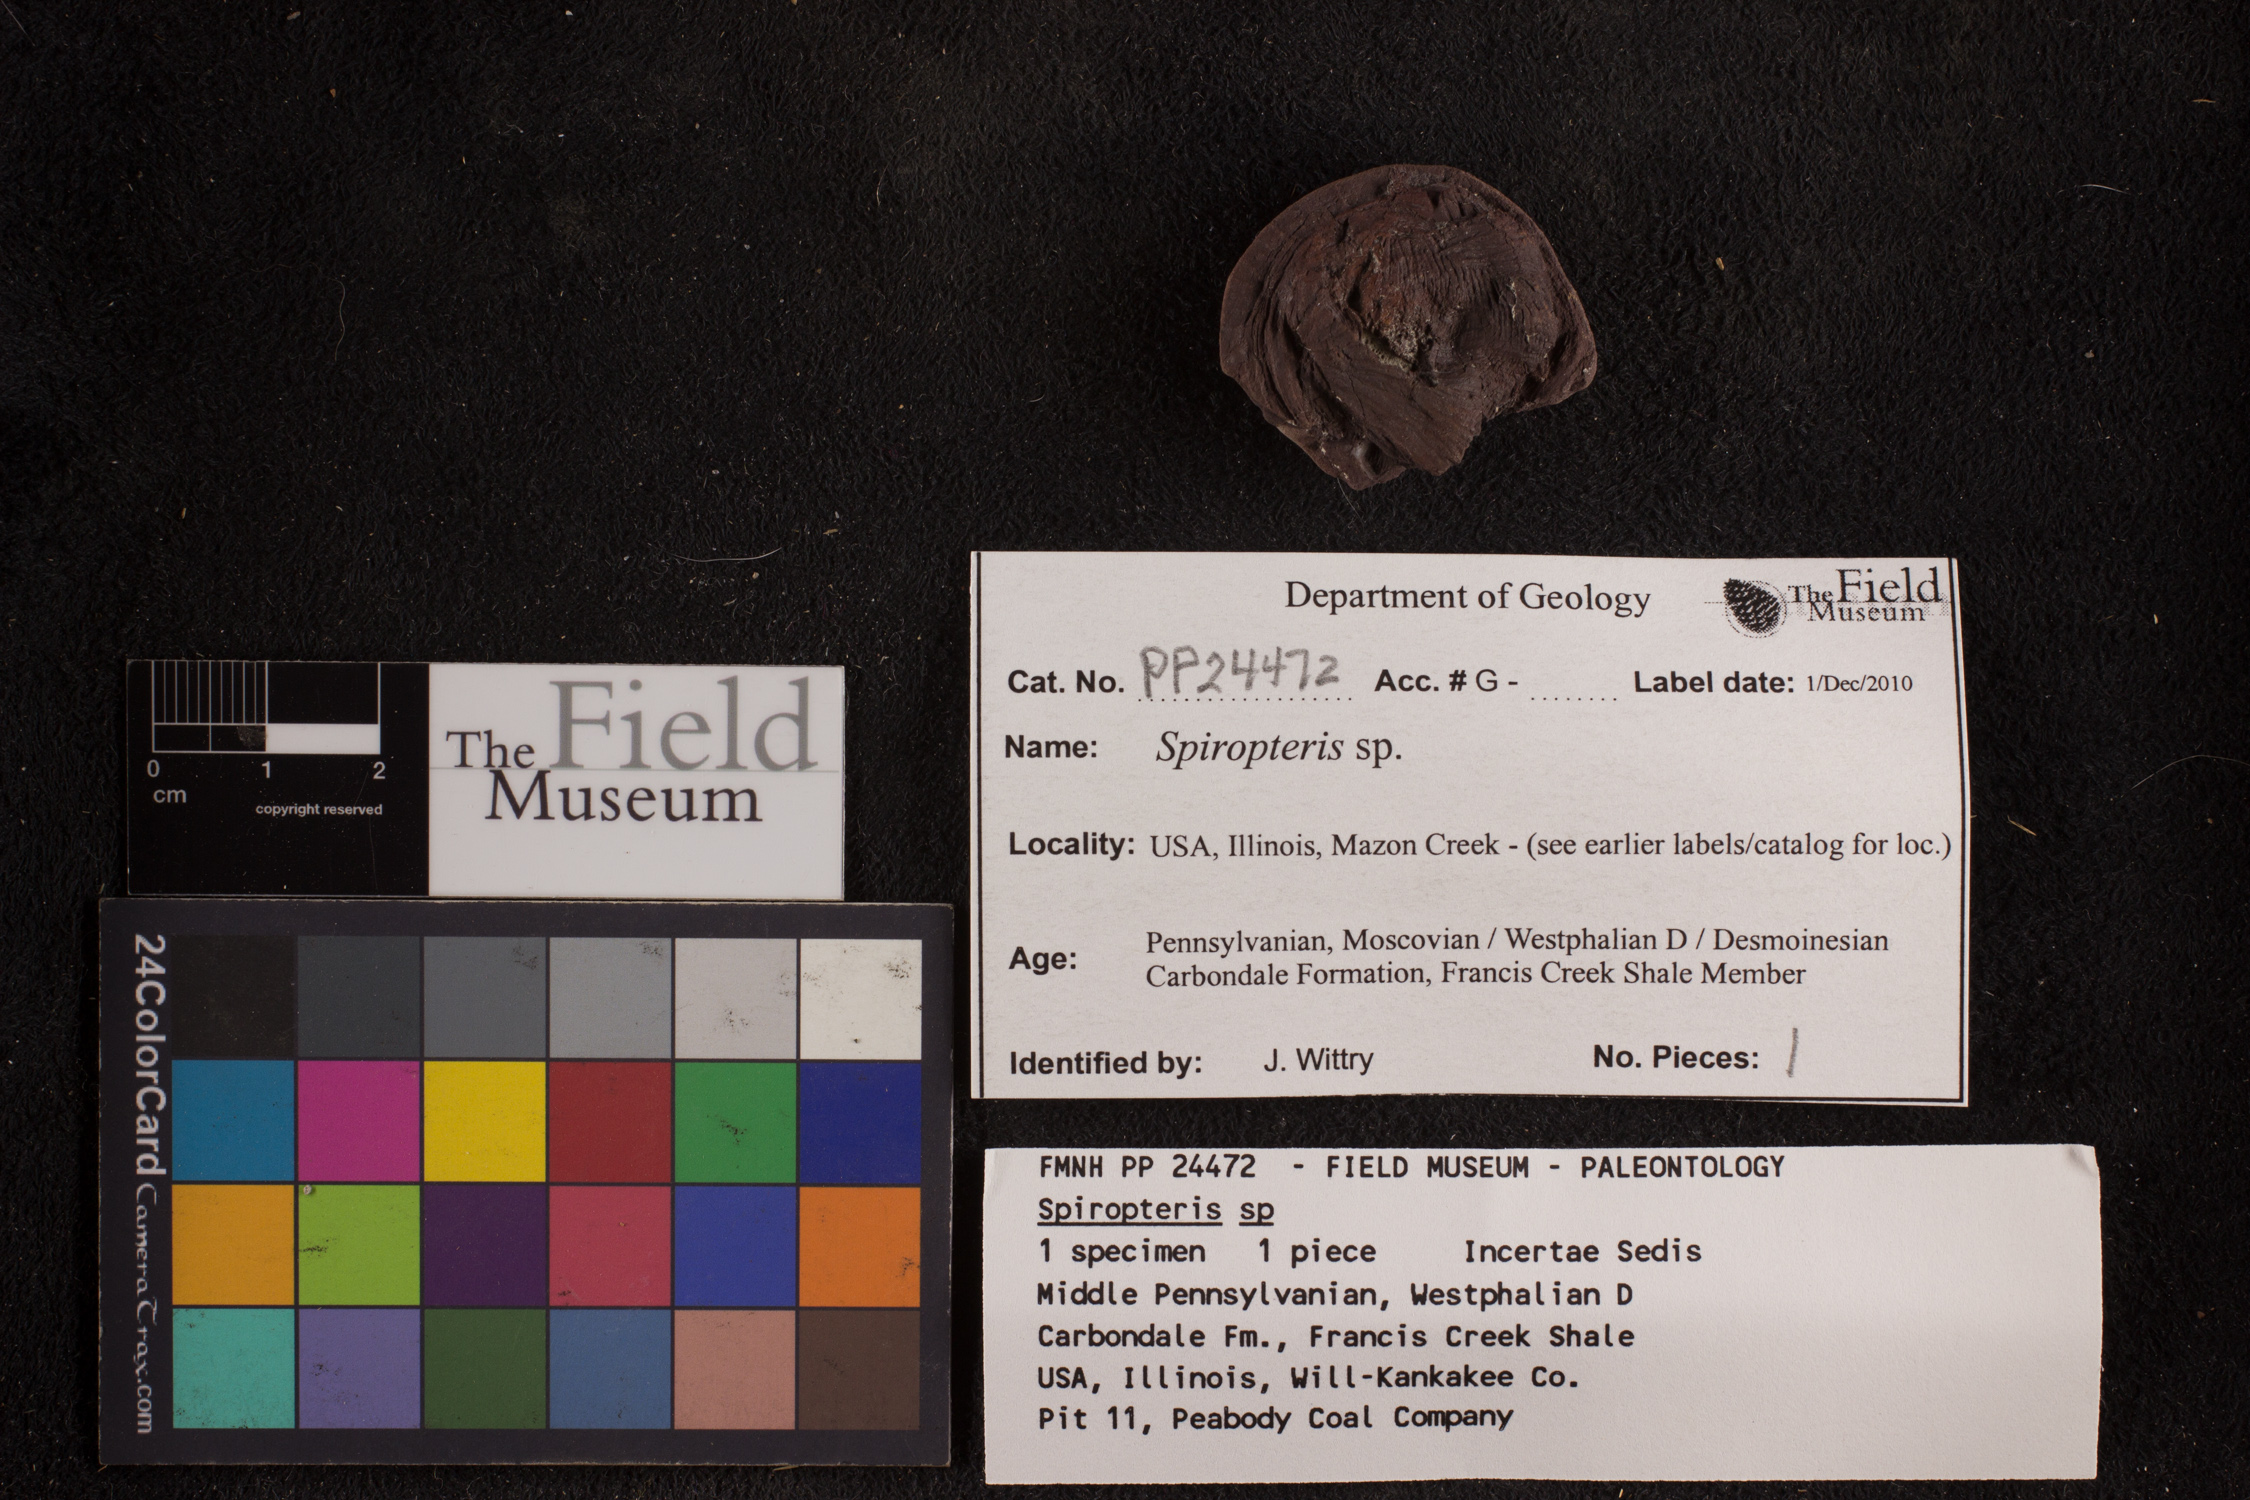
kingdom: Plantae
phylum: Tracheophyta
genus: Spiropteris
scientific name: Spiropteris
